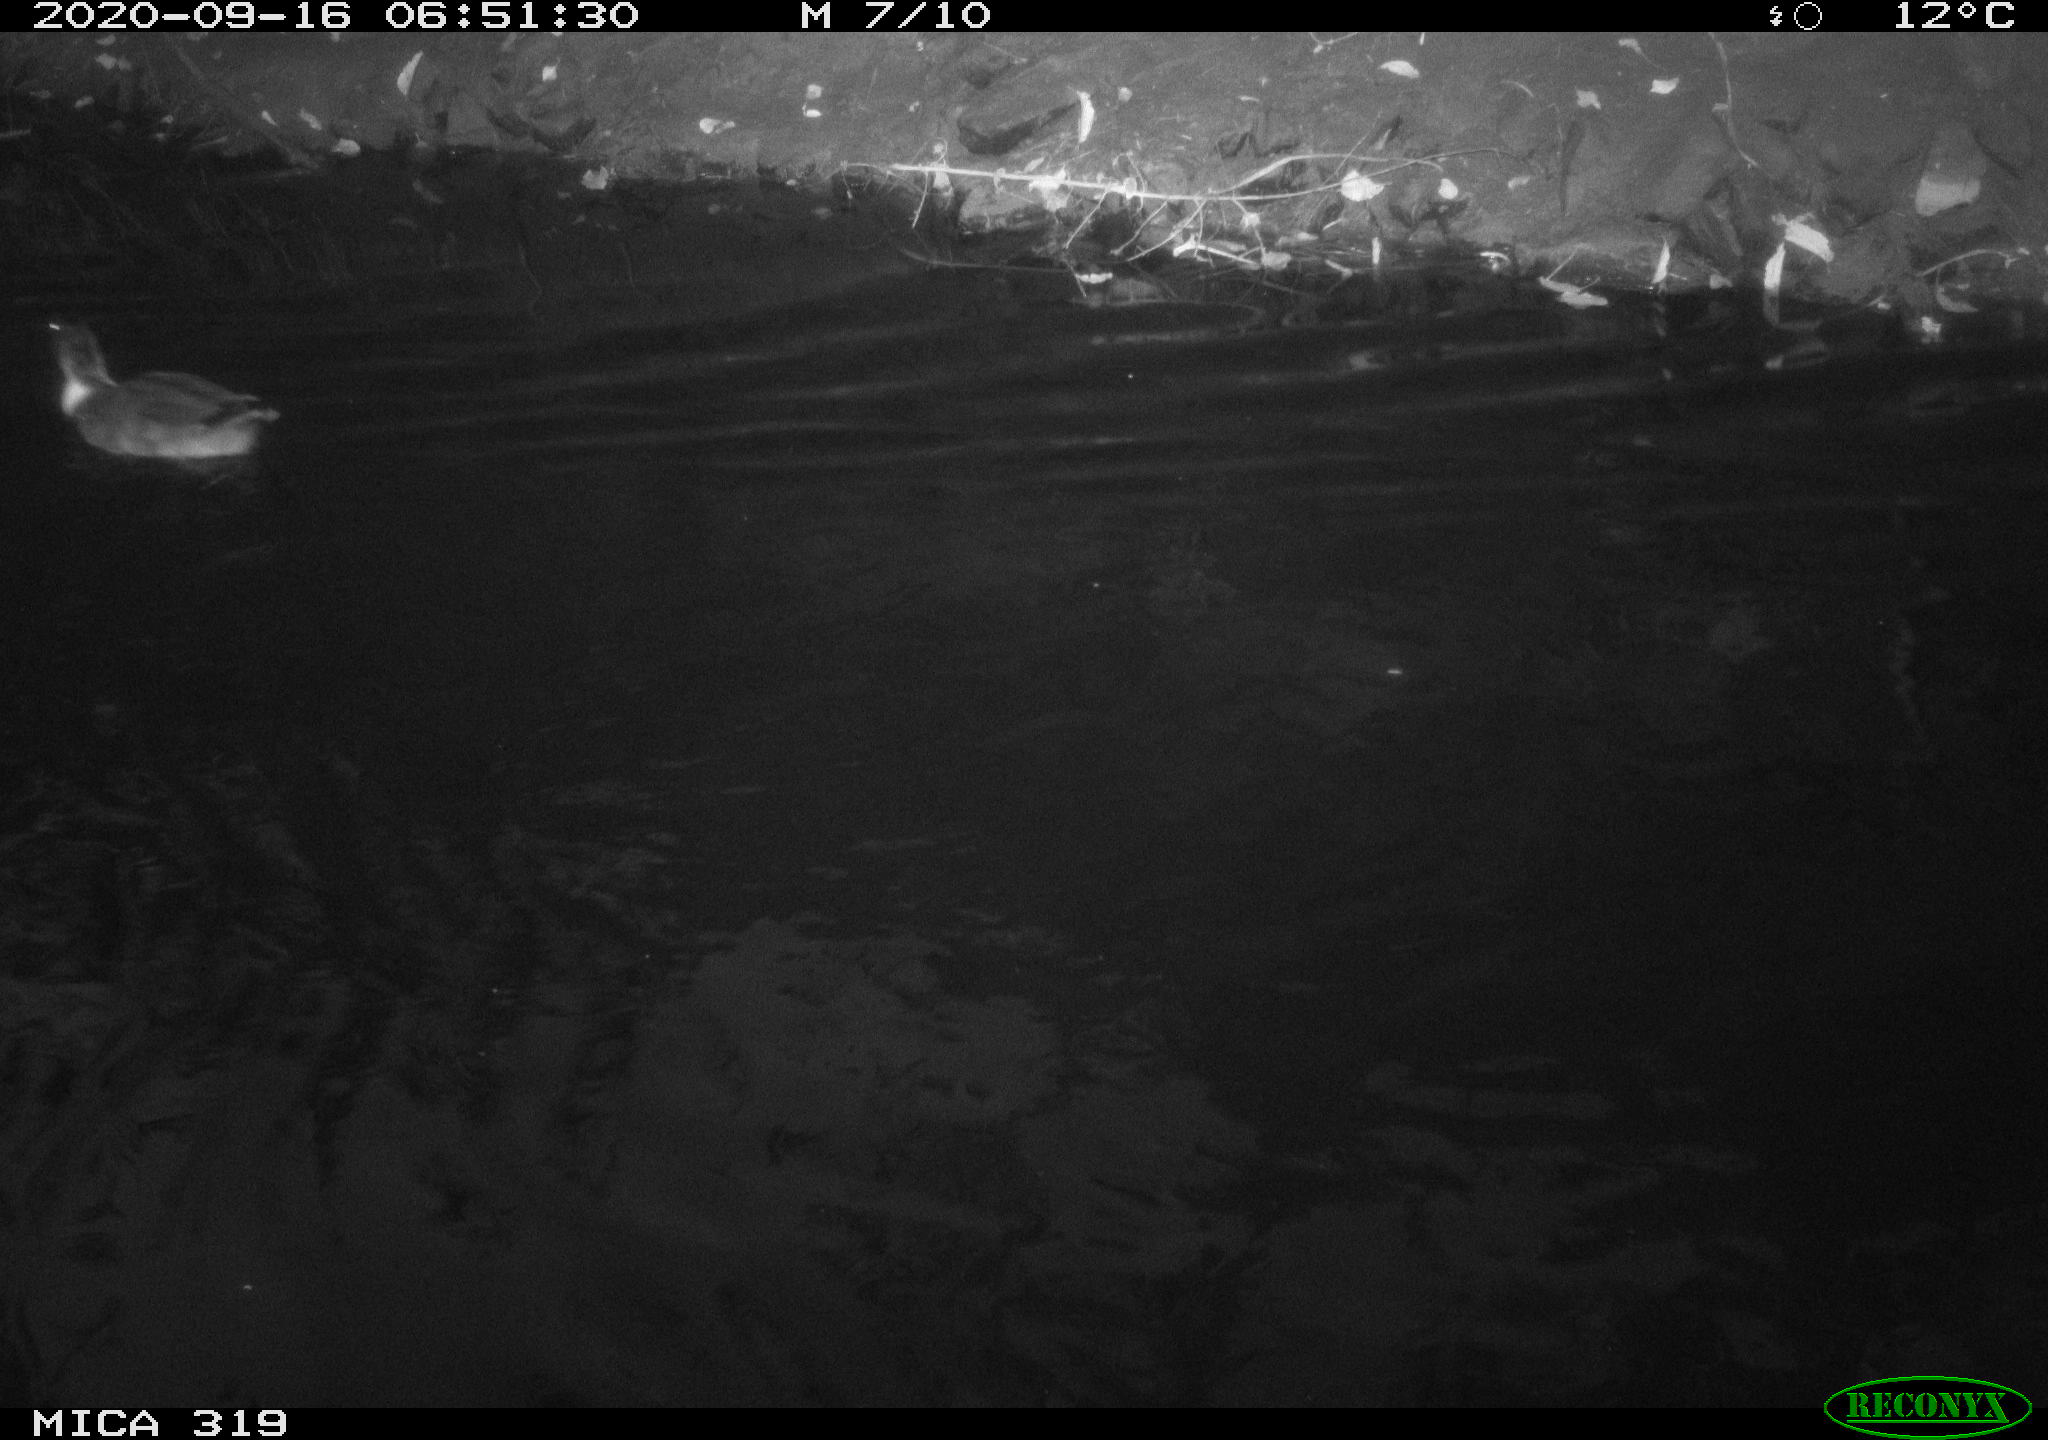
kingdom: Animalia
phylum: Chordata
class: Aves
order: Anseriformes
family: Anatidae
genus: Anas
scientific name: Anas platyrhynchos
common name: Mallard
